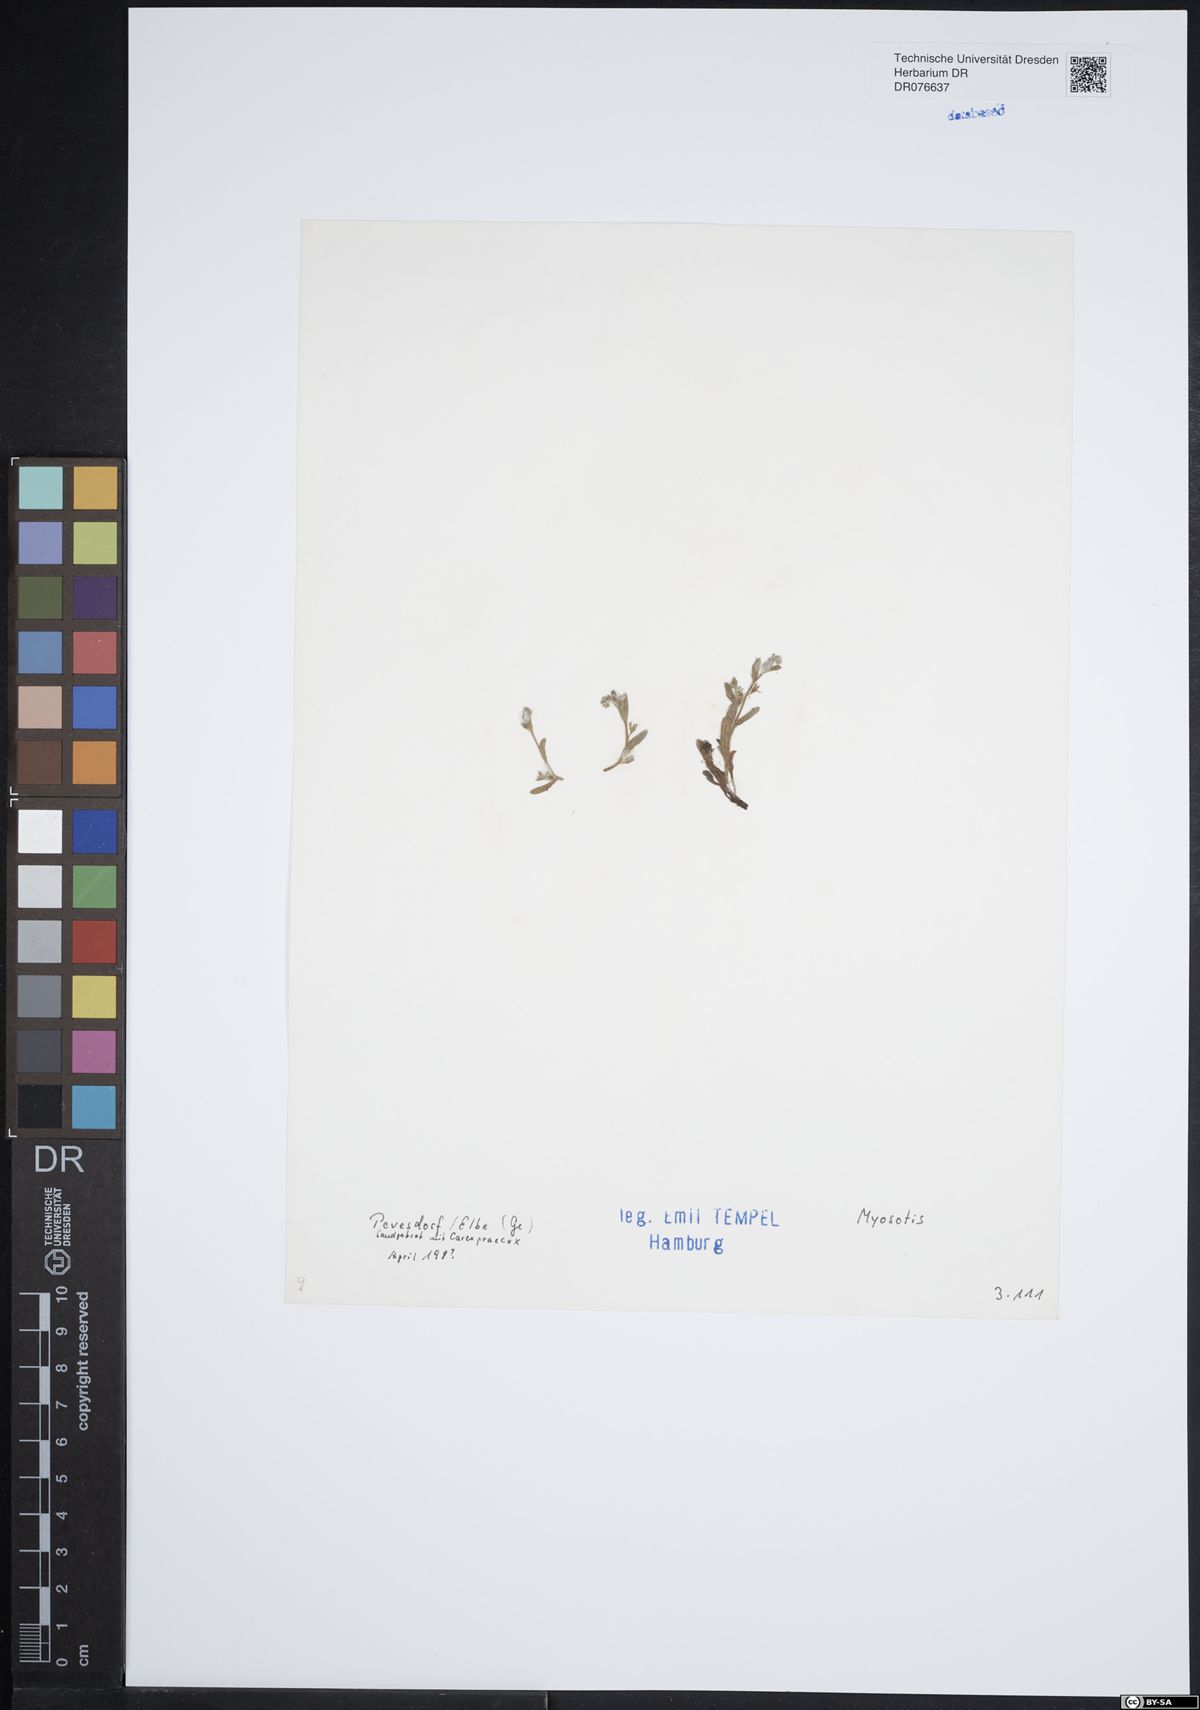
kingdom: Plantae
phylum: Tracheophyta
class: Magnoliopsida
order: Boraginales
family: Boraginaceae
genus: Myosotis
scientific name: Myosotis
